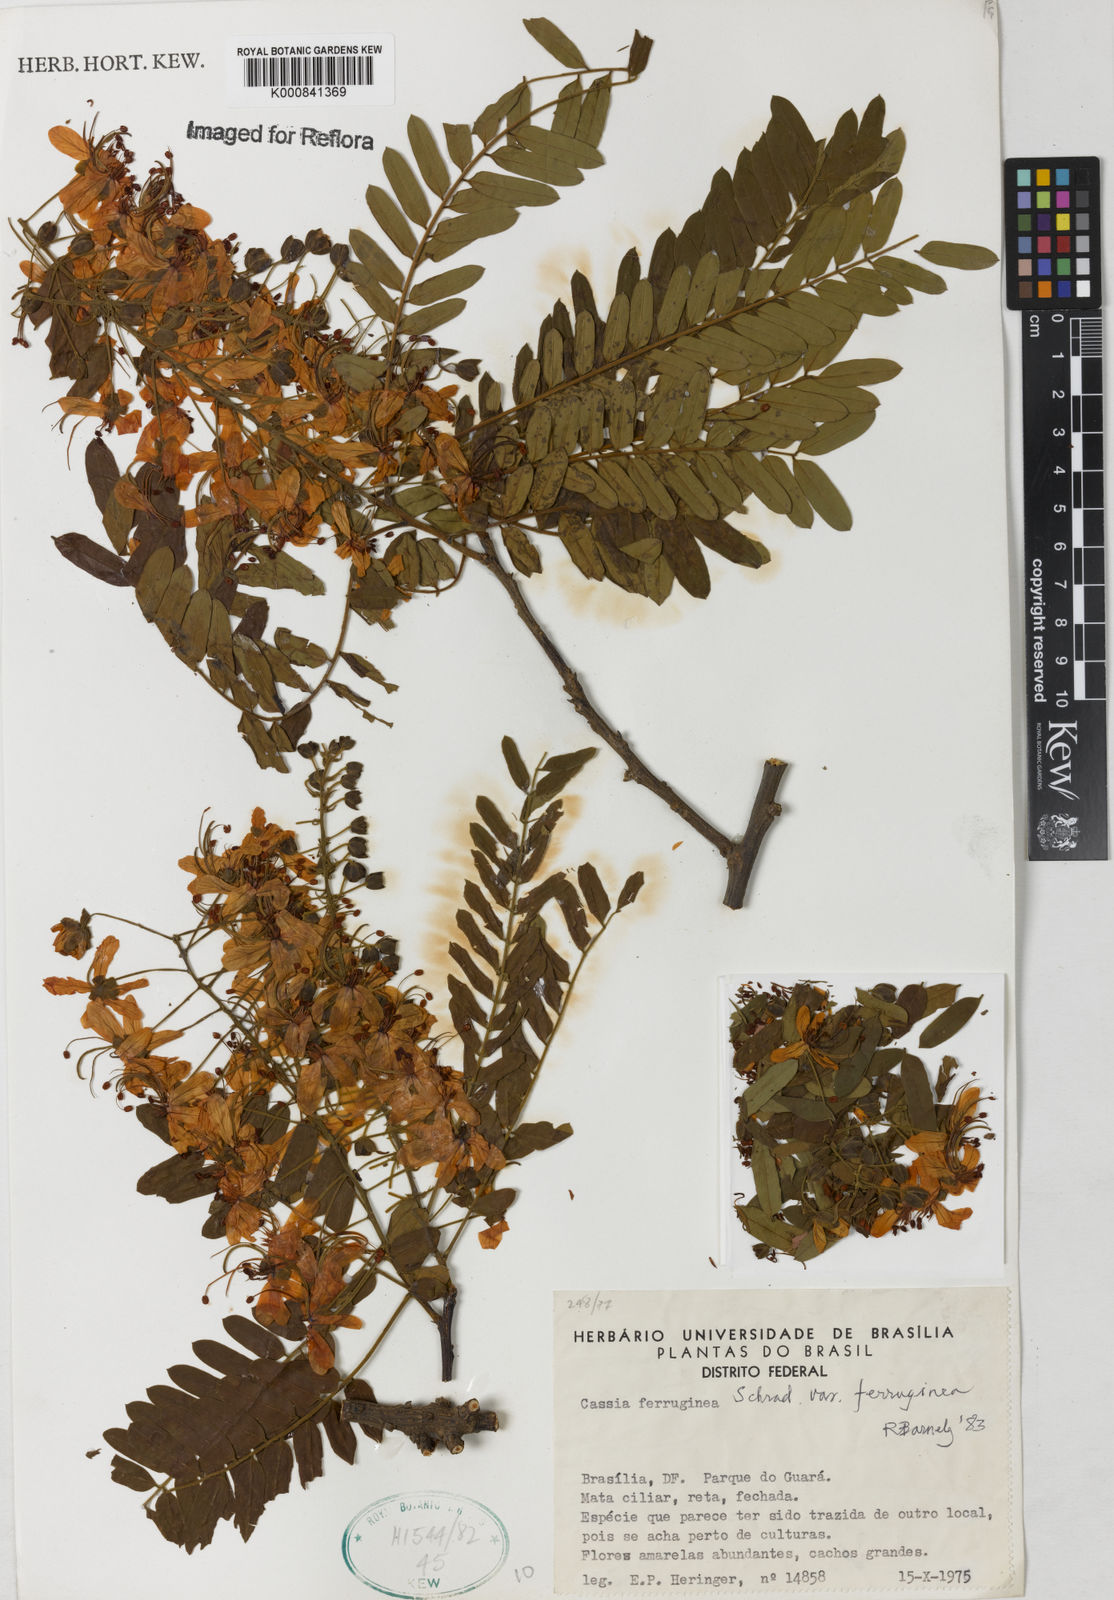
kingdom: Plantae
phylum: Tracheophyta
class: Magnoliopsida
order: Fabales
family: Fabaceae
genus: Cassia
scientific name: Cassia ferruginea
